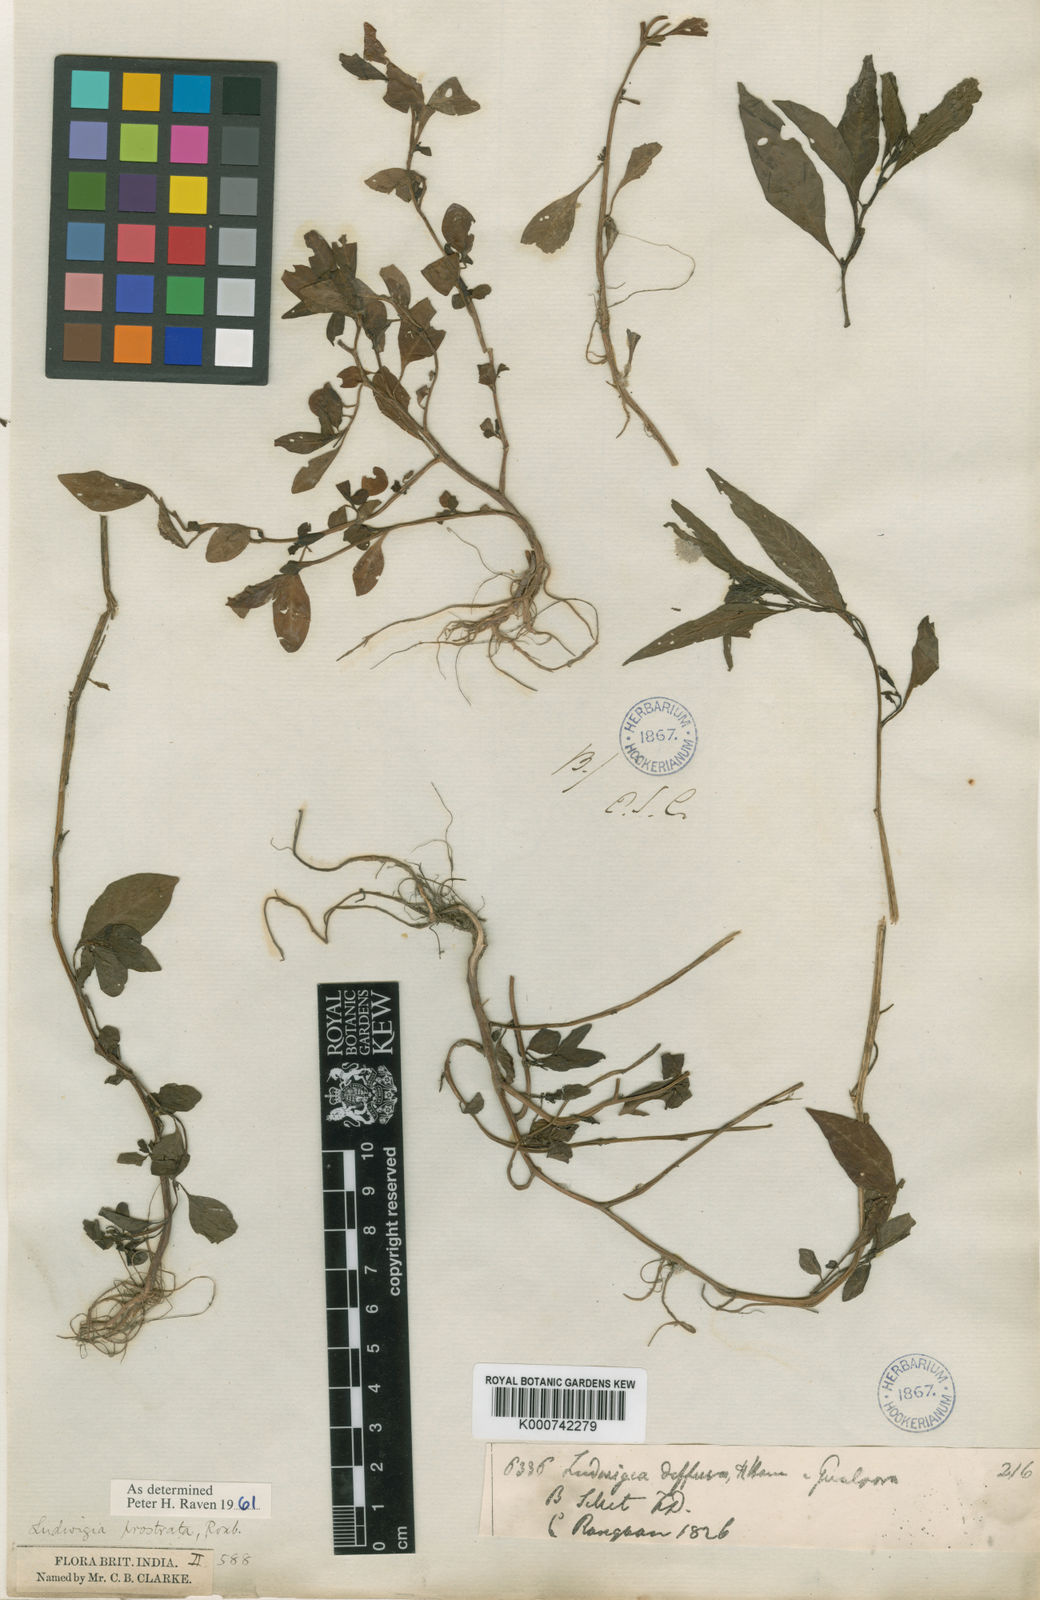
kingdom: Plantae
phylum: Tracheophyta
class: Magnoliopsida
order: Myrtales
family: Onagraceae
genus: Ludwigia
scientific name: Ludwigia prostrata
